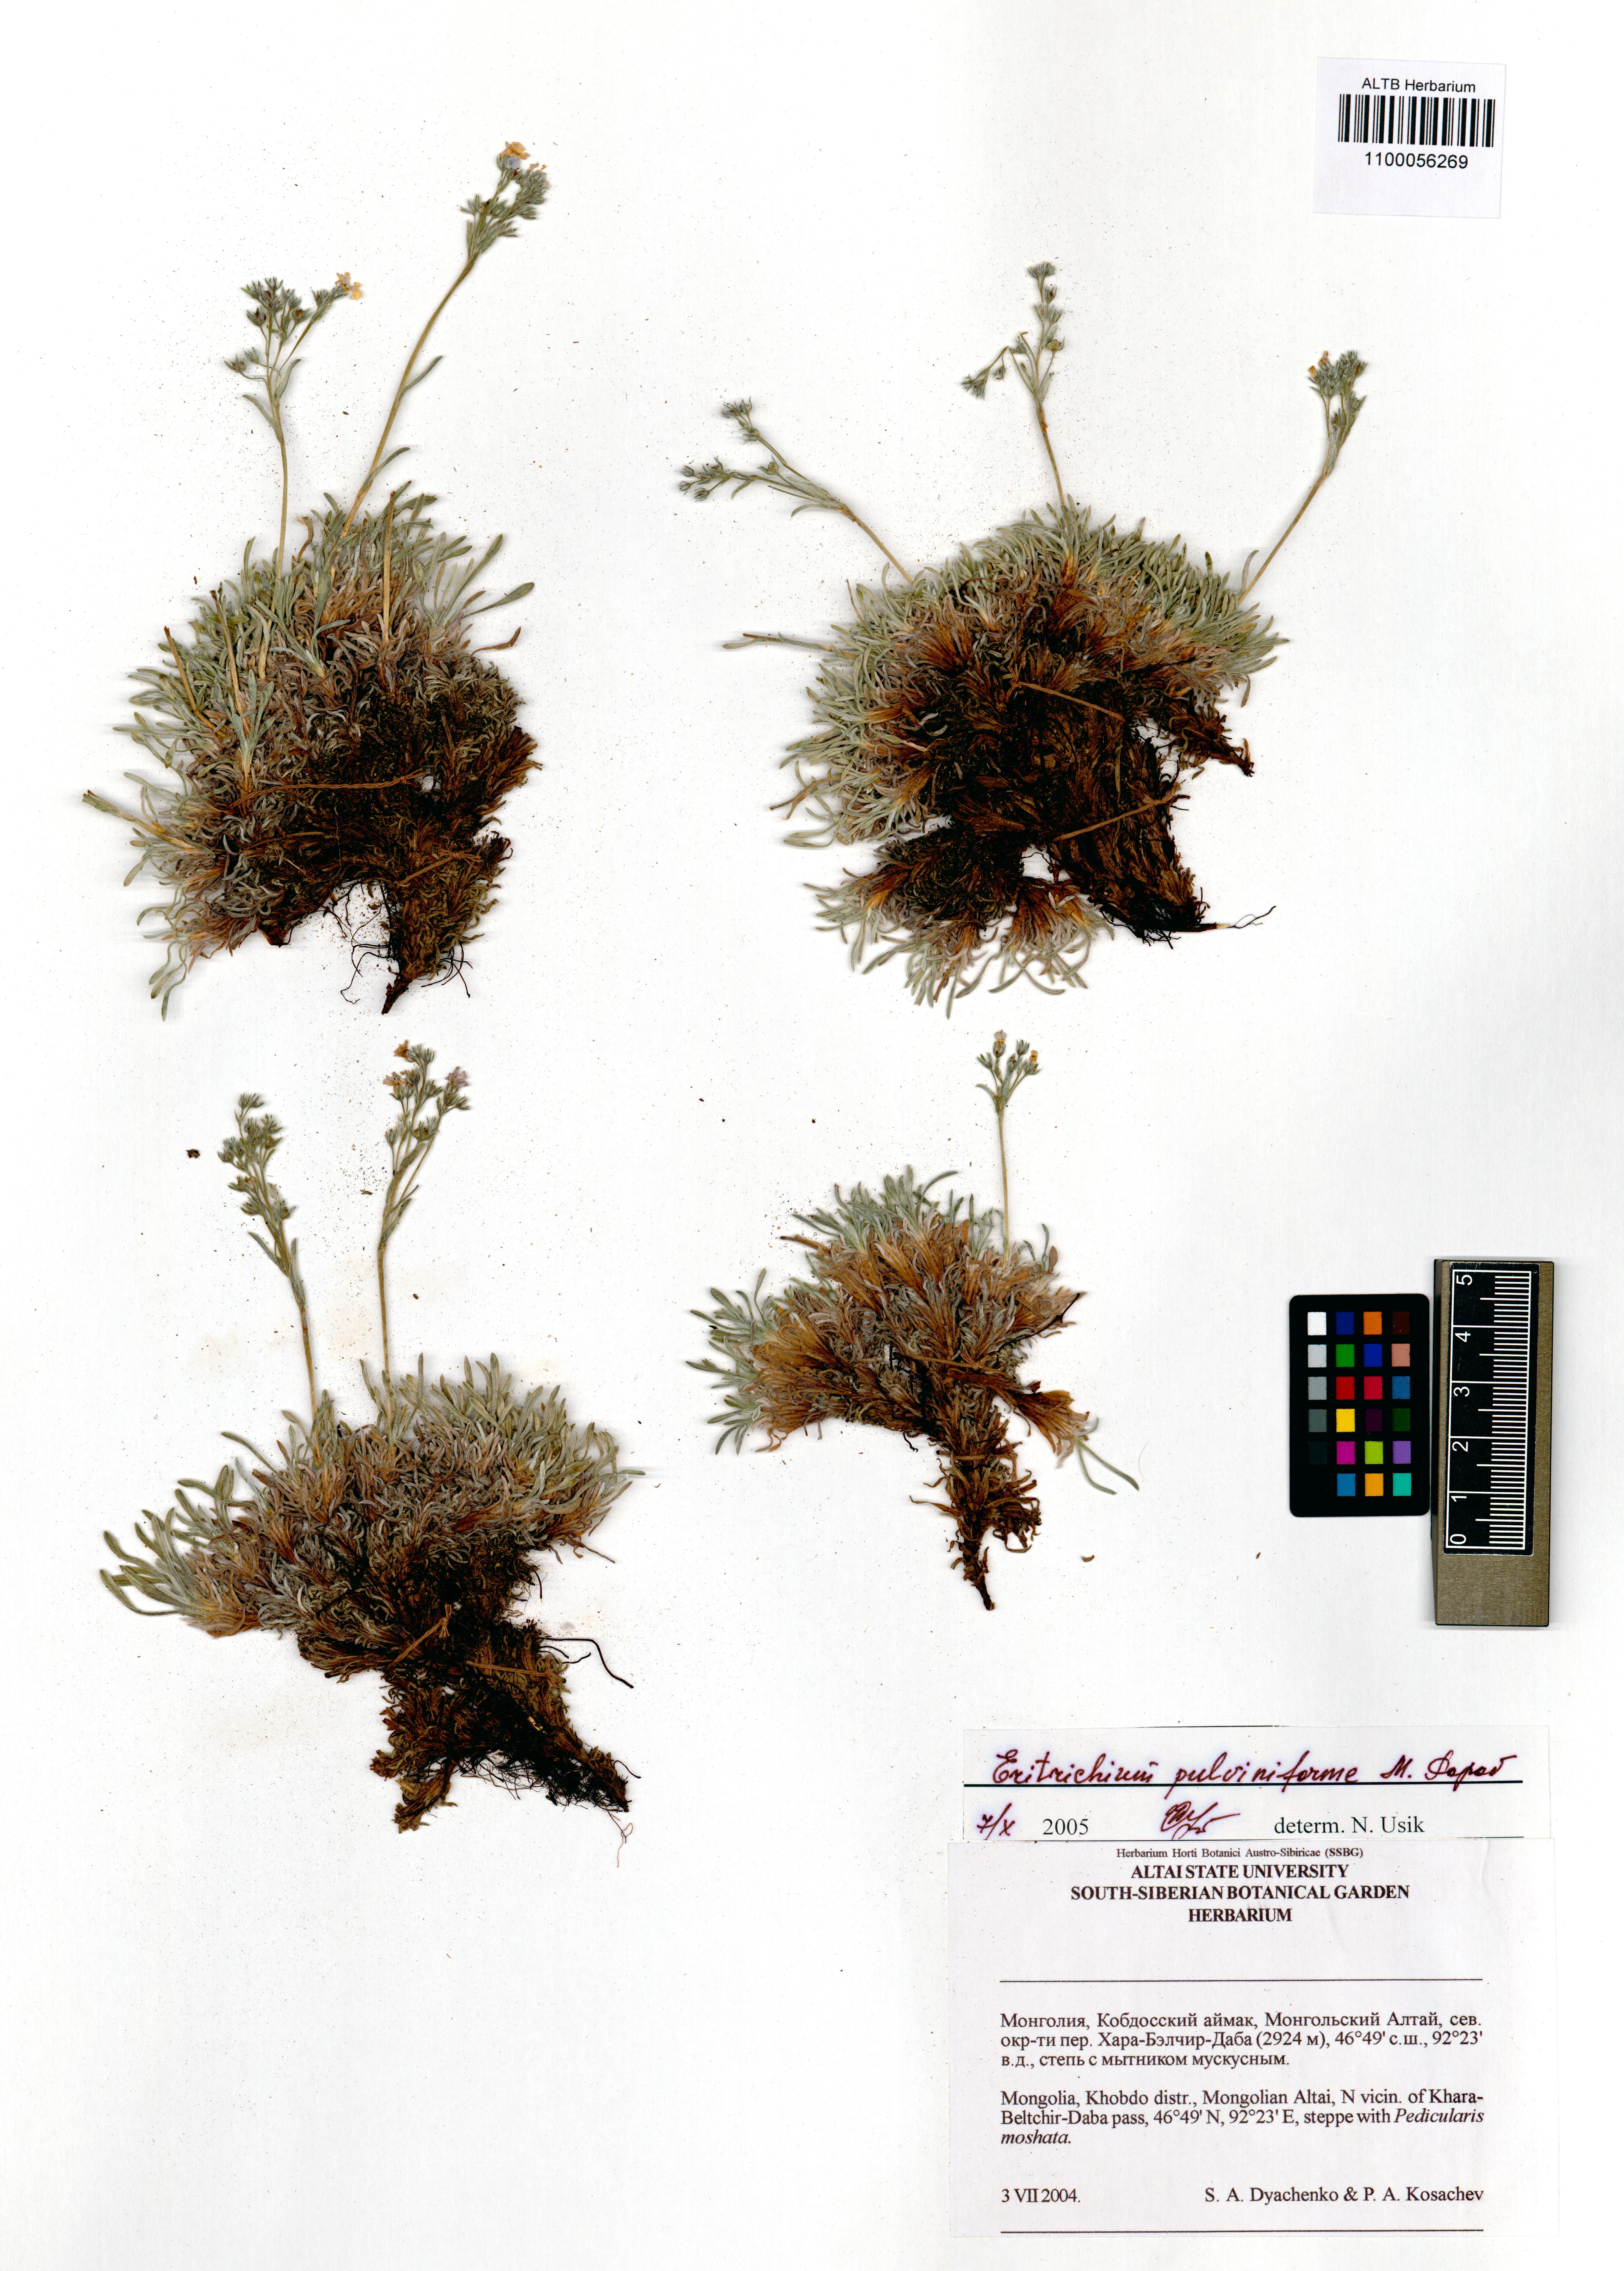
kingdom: Plantae
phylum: Tracheophyta
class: Magnoliopsida
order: Boraginales
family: Boraginaceae
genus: Eritrichium
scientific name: Eritrichium pauciflorum
